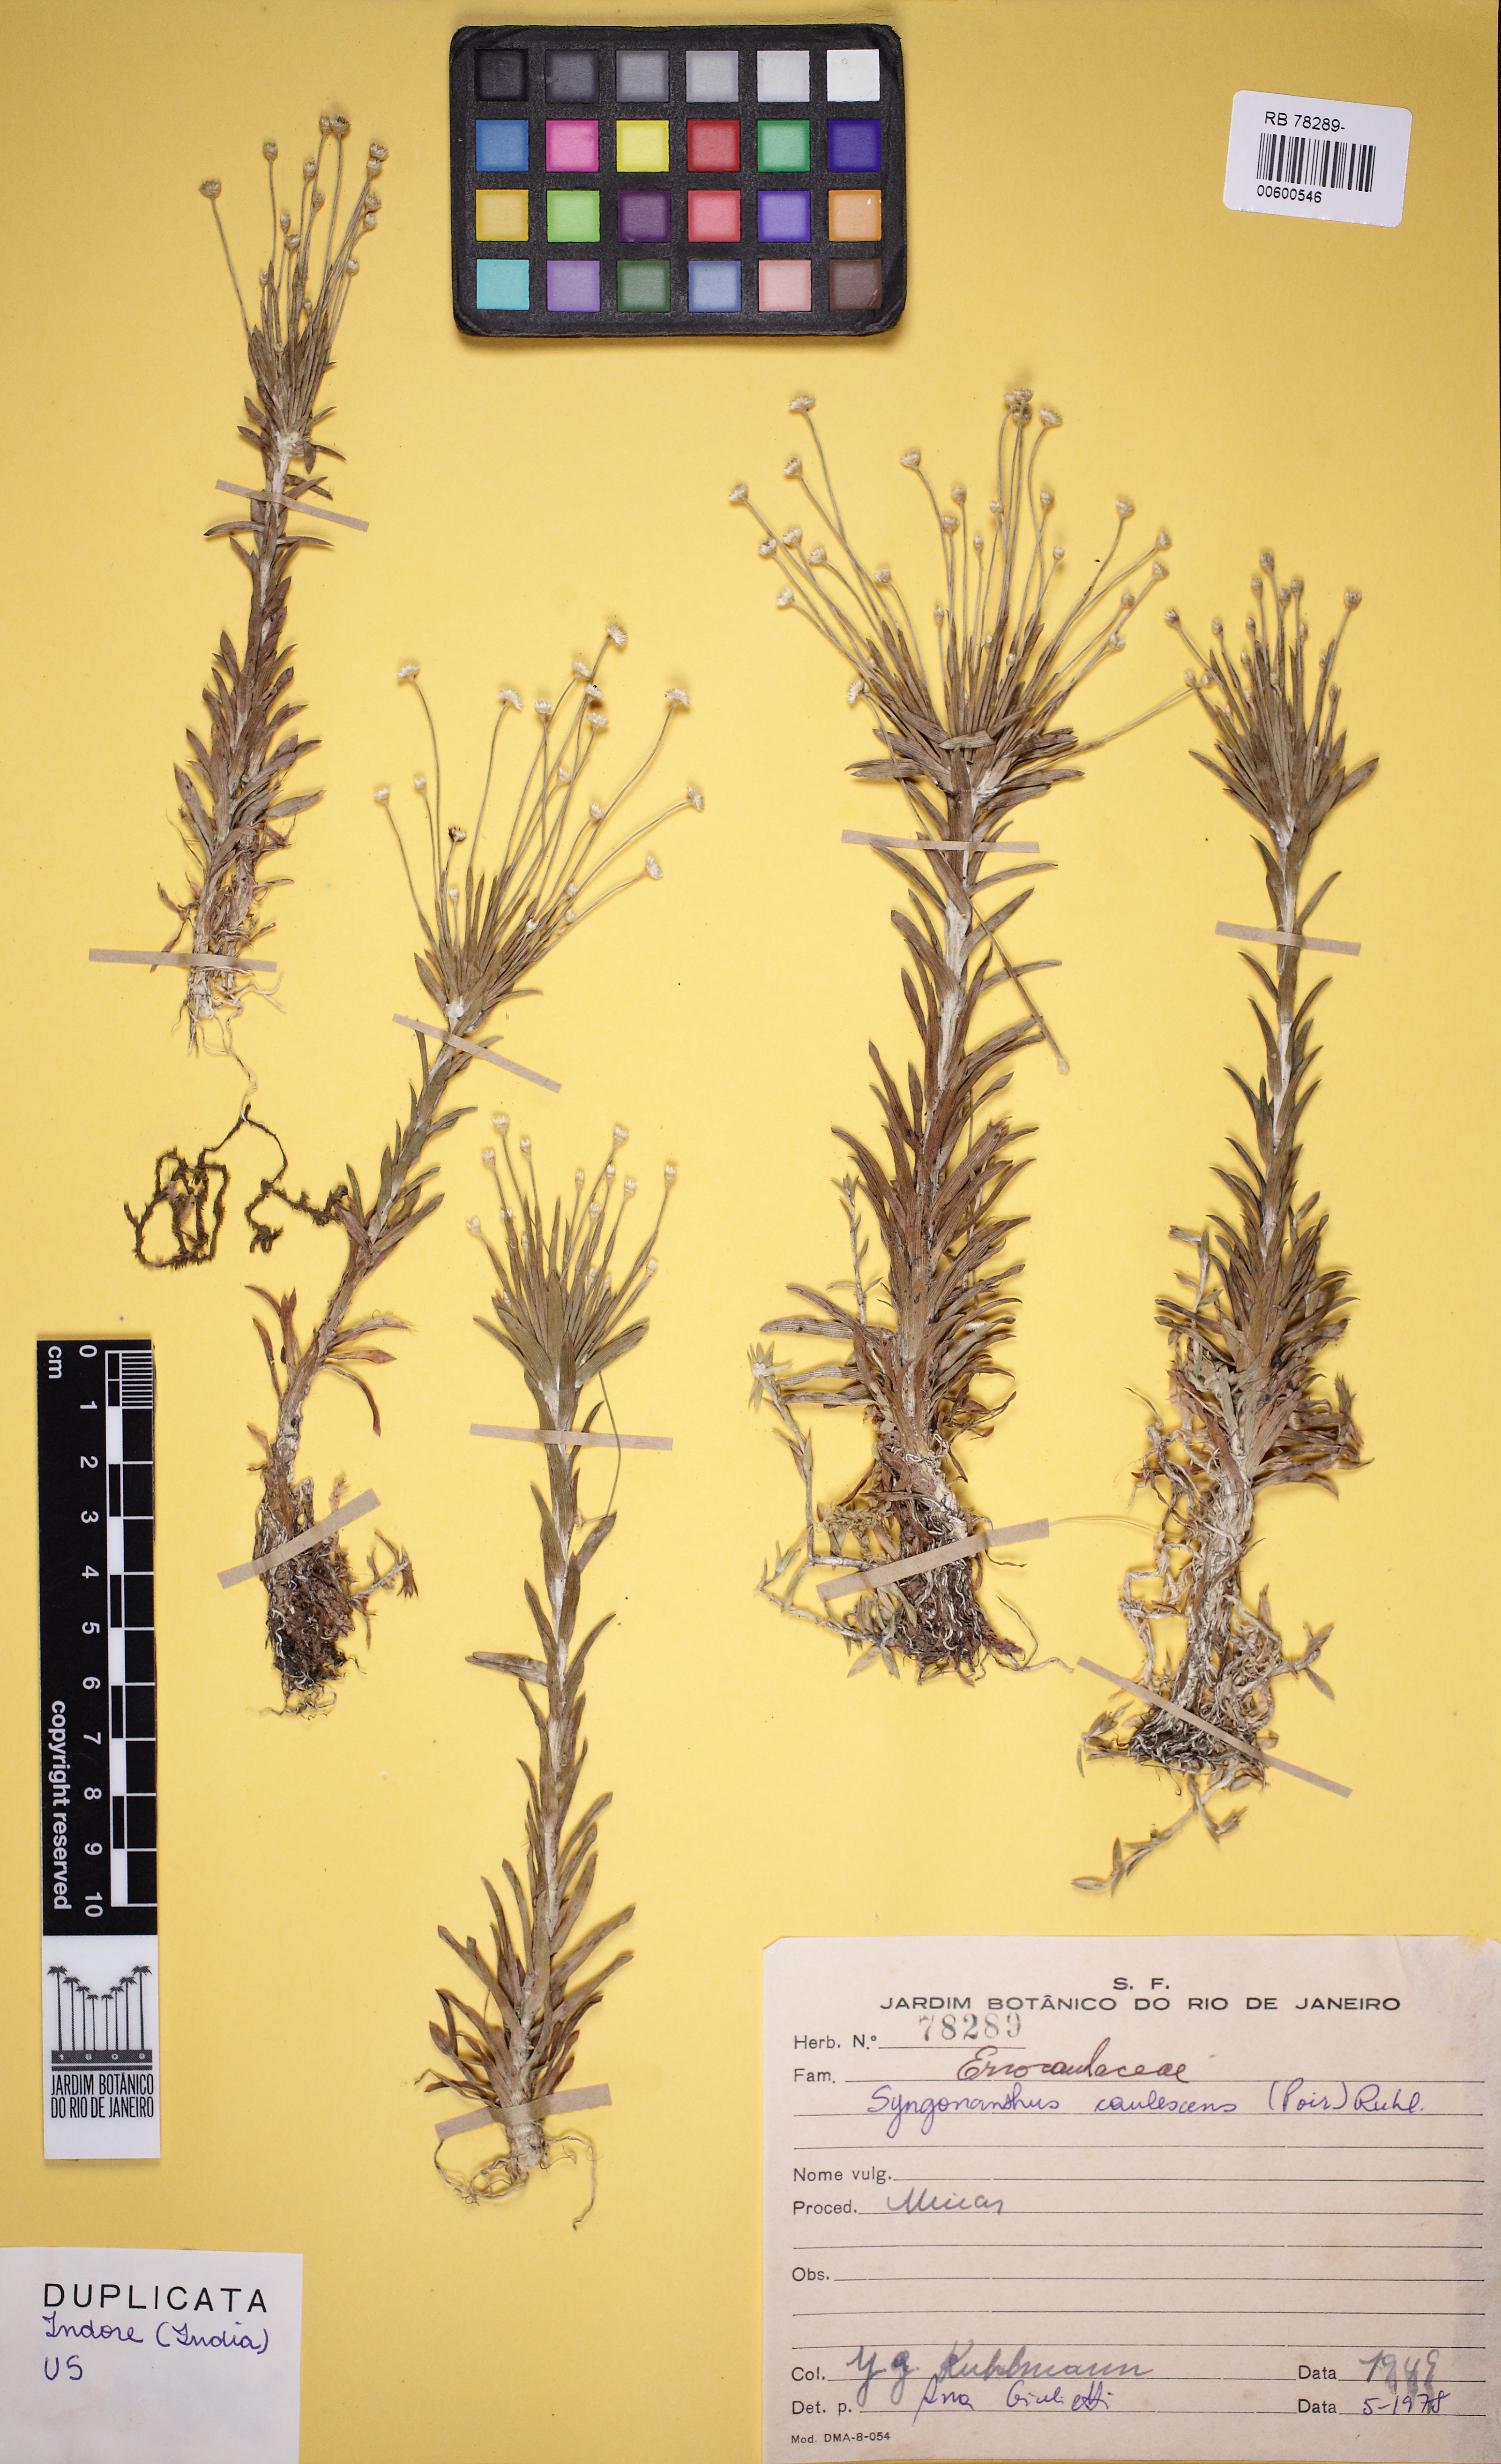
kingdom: Plantae
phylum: Tracheophyta
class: Liliopsida
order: Poales
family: Eriocaulaceae
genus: Syngonanthus
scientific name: Syngonanthus caulescens
